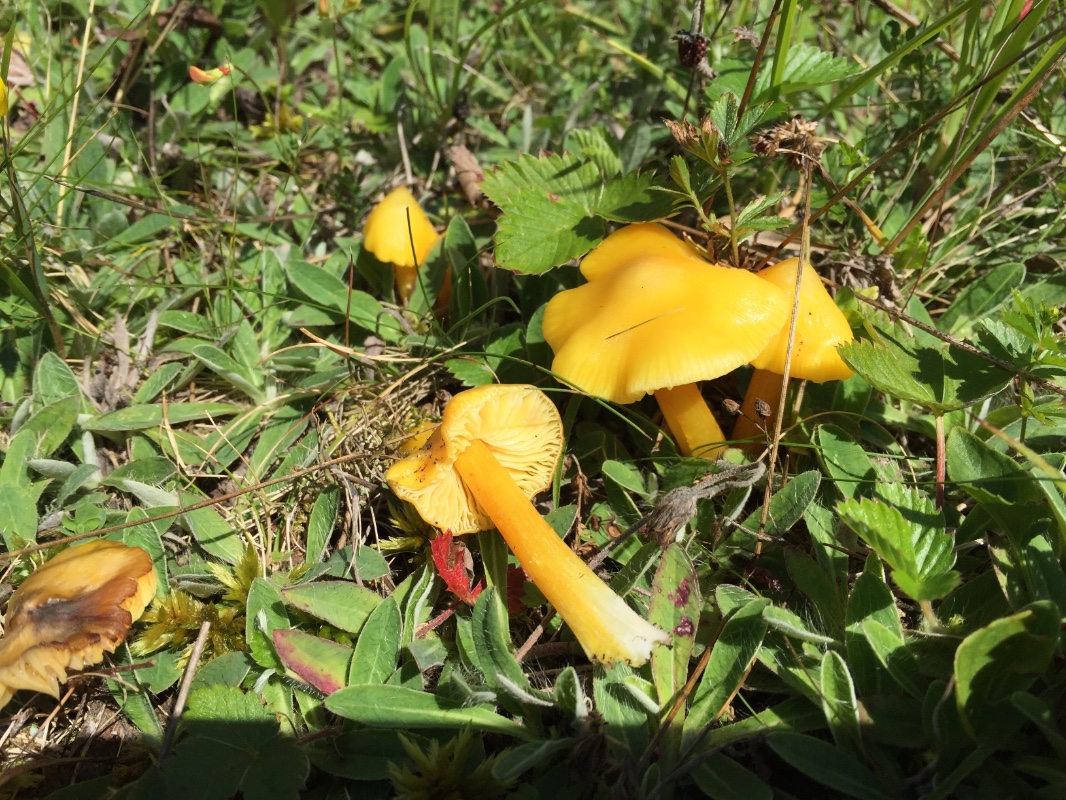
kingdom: Fungi
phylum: Basidiomycota
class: Agaricomycetes
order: Agaricales
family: Hygrophoraceae
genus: Hygrocybe
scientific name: Hygrocybe acutoconica
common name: spidspuklet vokshat
